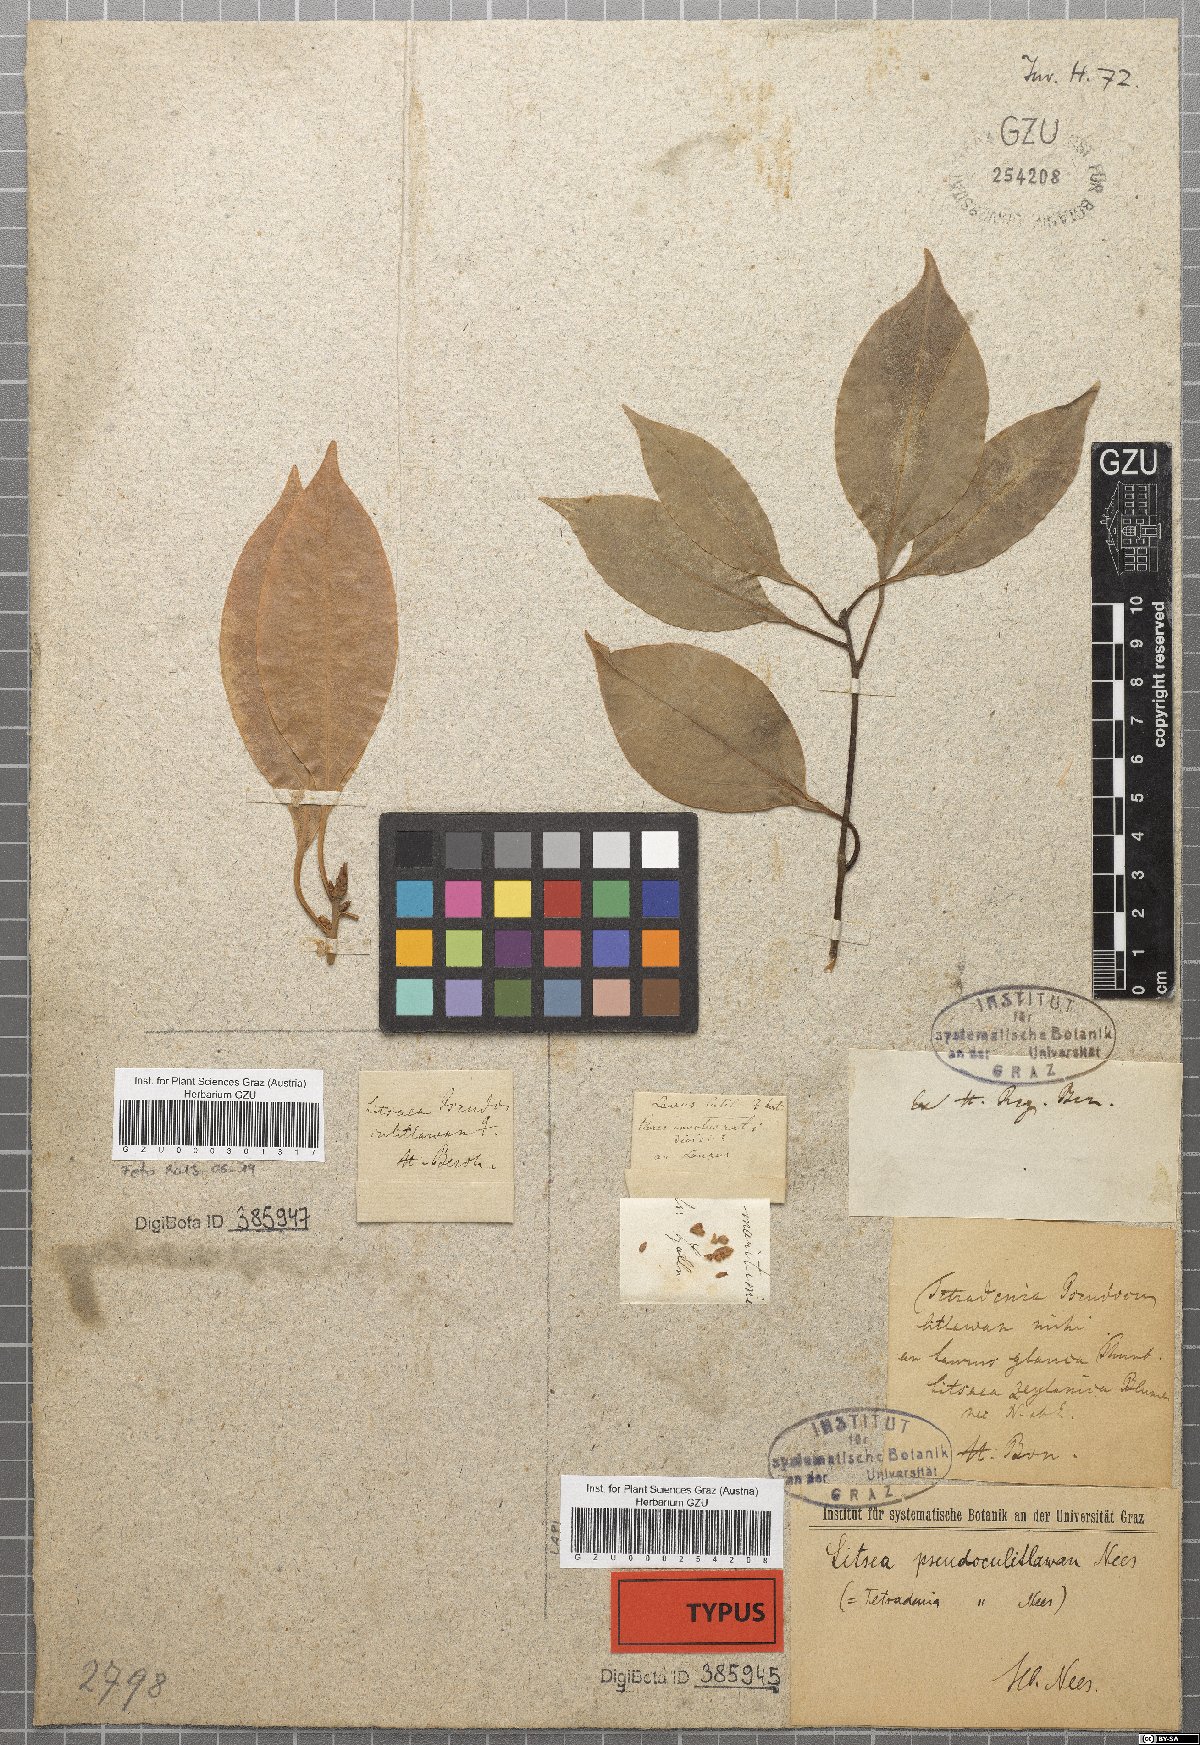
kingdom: Plantae
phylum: Tracheophyta
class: Magnoliopsida
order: Laurales
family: Lauraceae
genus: Neolitsea
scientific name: Neolitsea cassia
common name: Laurel
